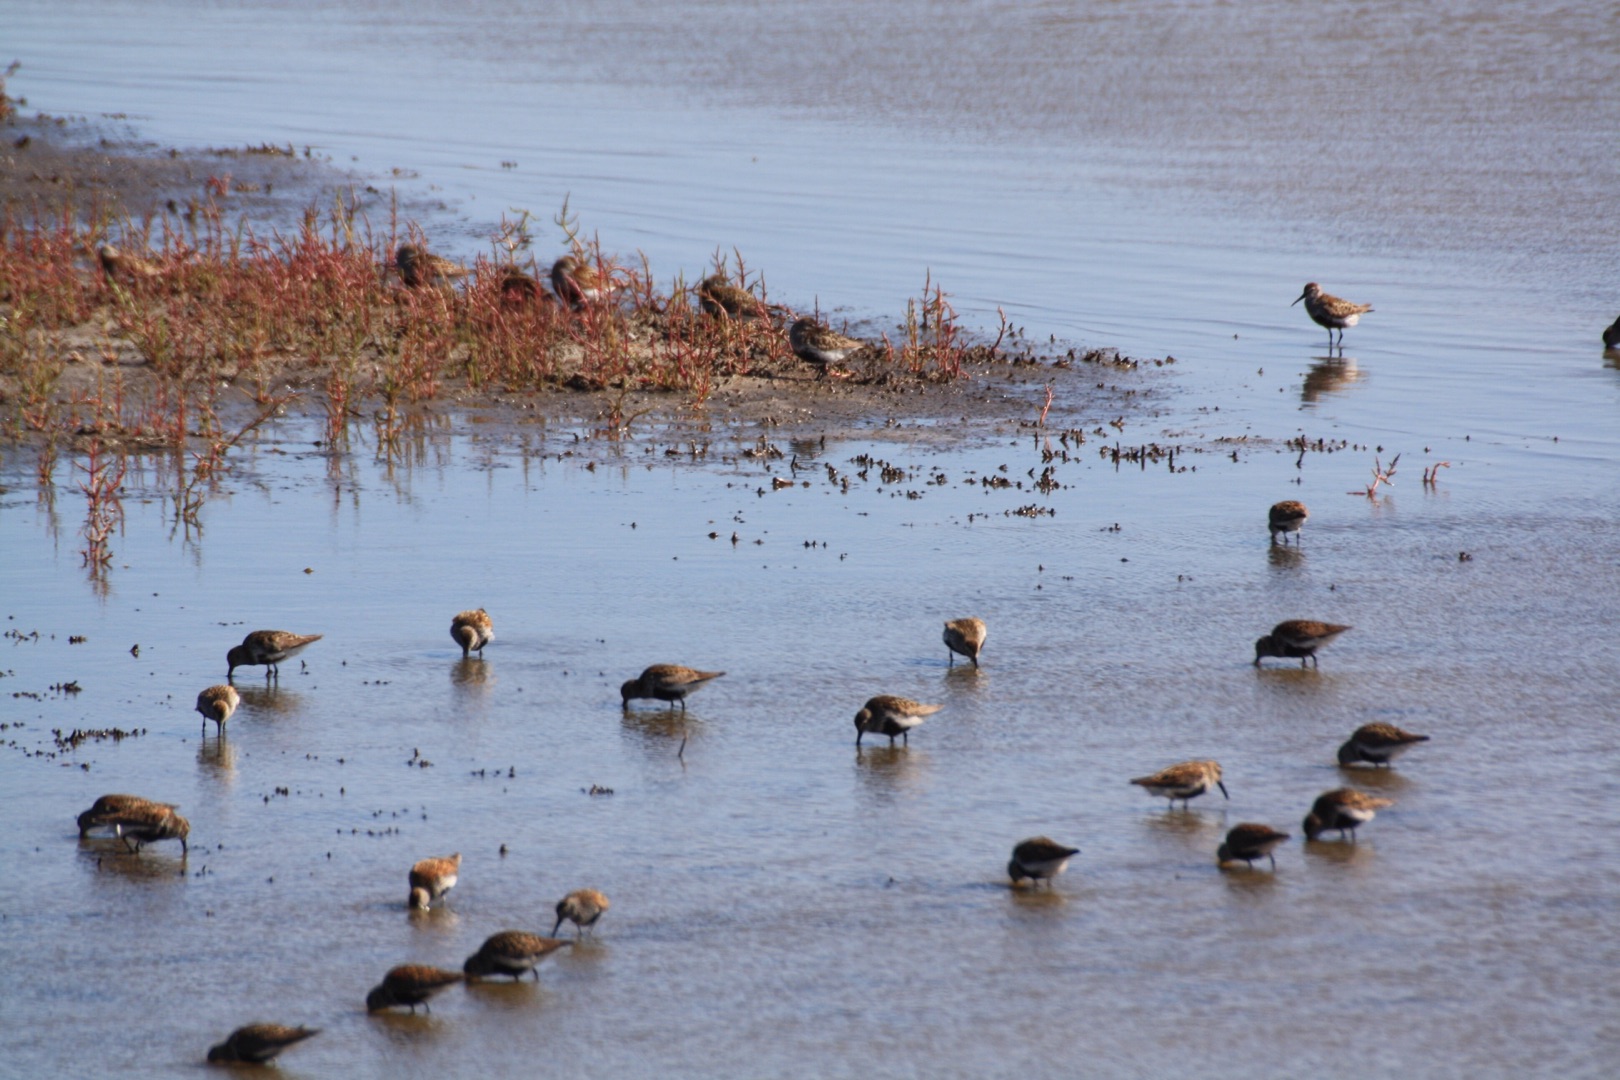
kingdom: Animalia
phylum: Chordata
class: Aves
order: Charadriiformes
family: Scolopacidae
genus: Calidris
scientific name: Calidris alpina
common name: Almindelig ryle
